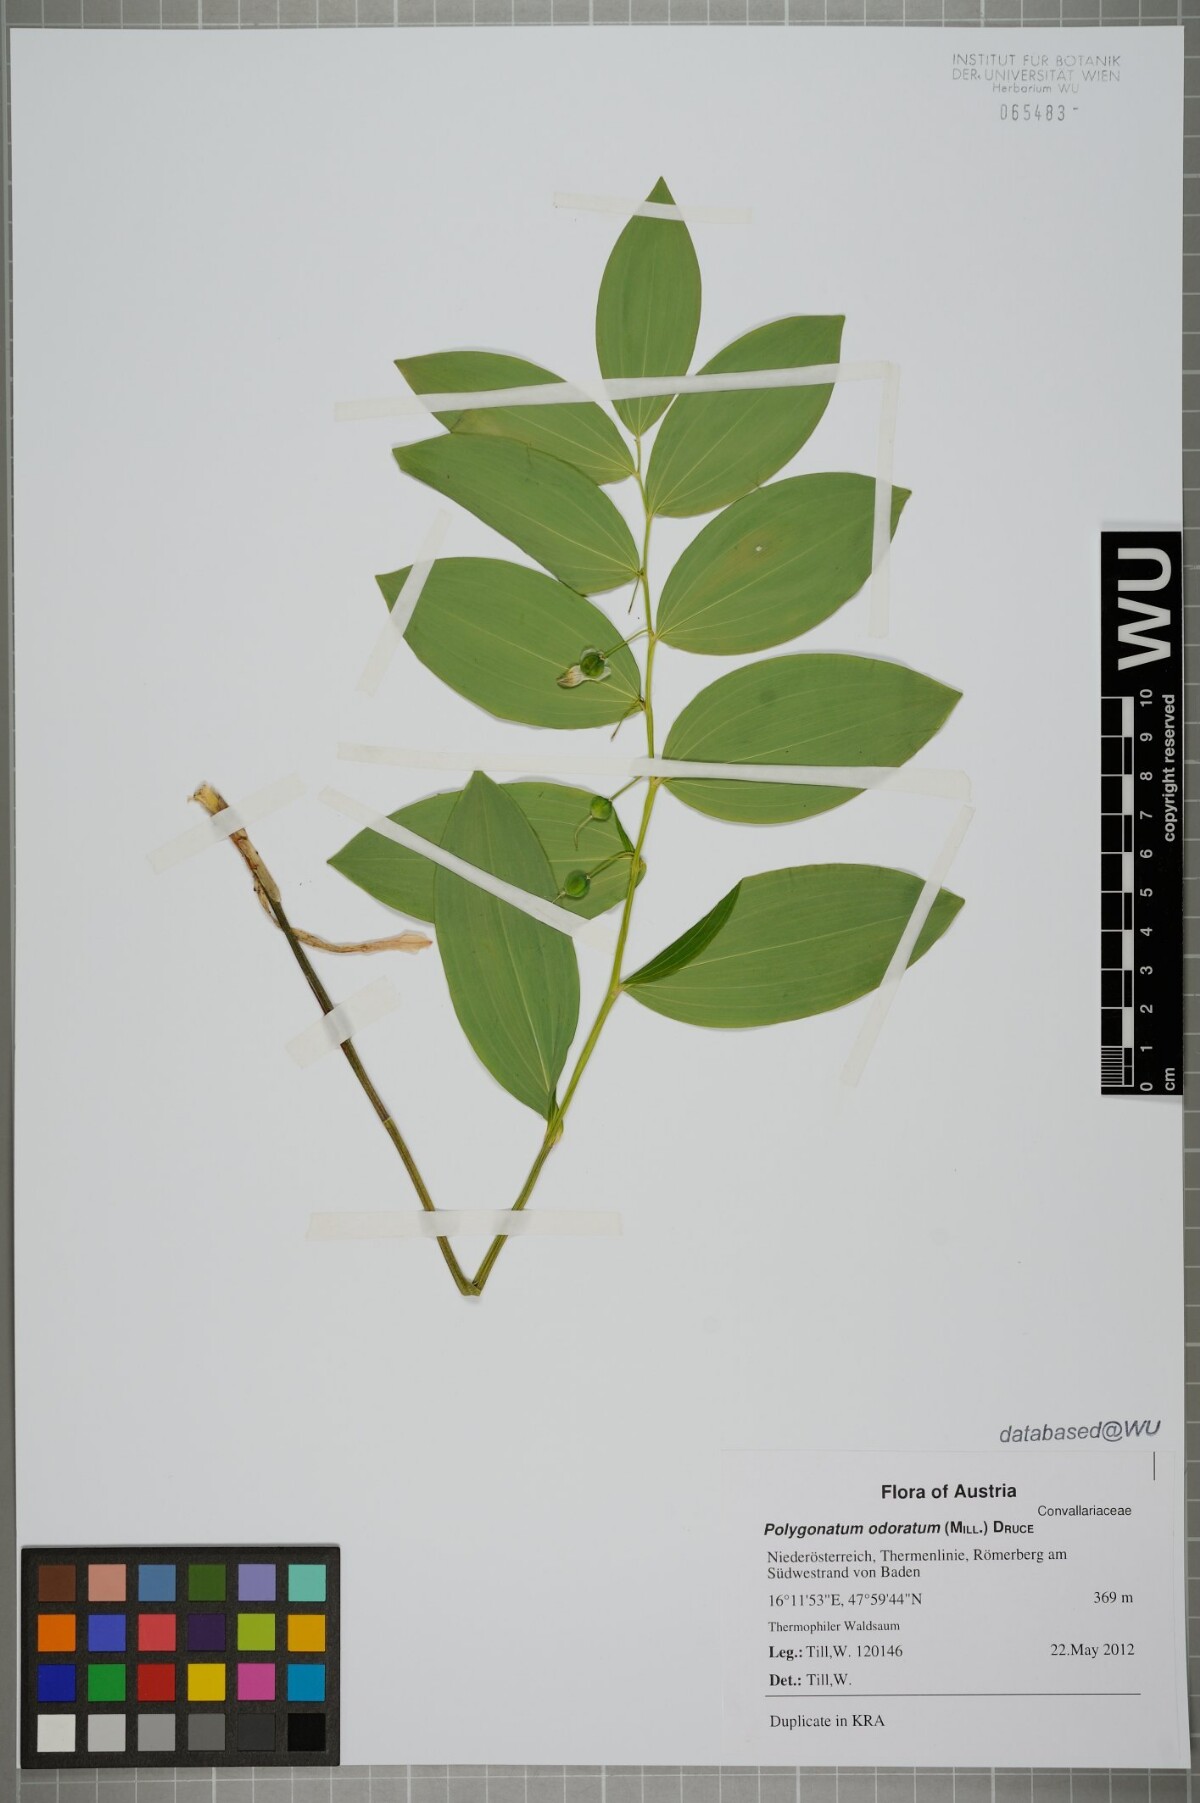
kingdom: Plantae
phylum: Tracheophyta
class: Liliopsida
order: Asparagales
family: Asparagaceae
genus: Polygonatum
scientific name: Polygonatum odoratum
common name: Angular solomon's-seal
